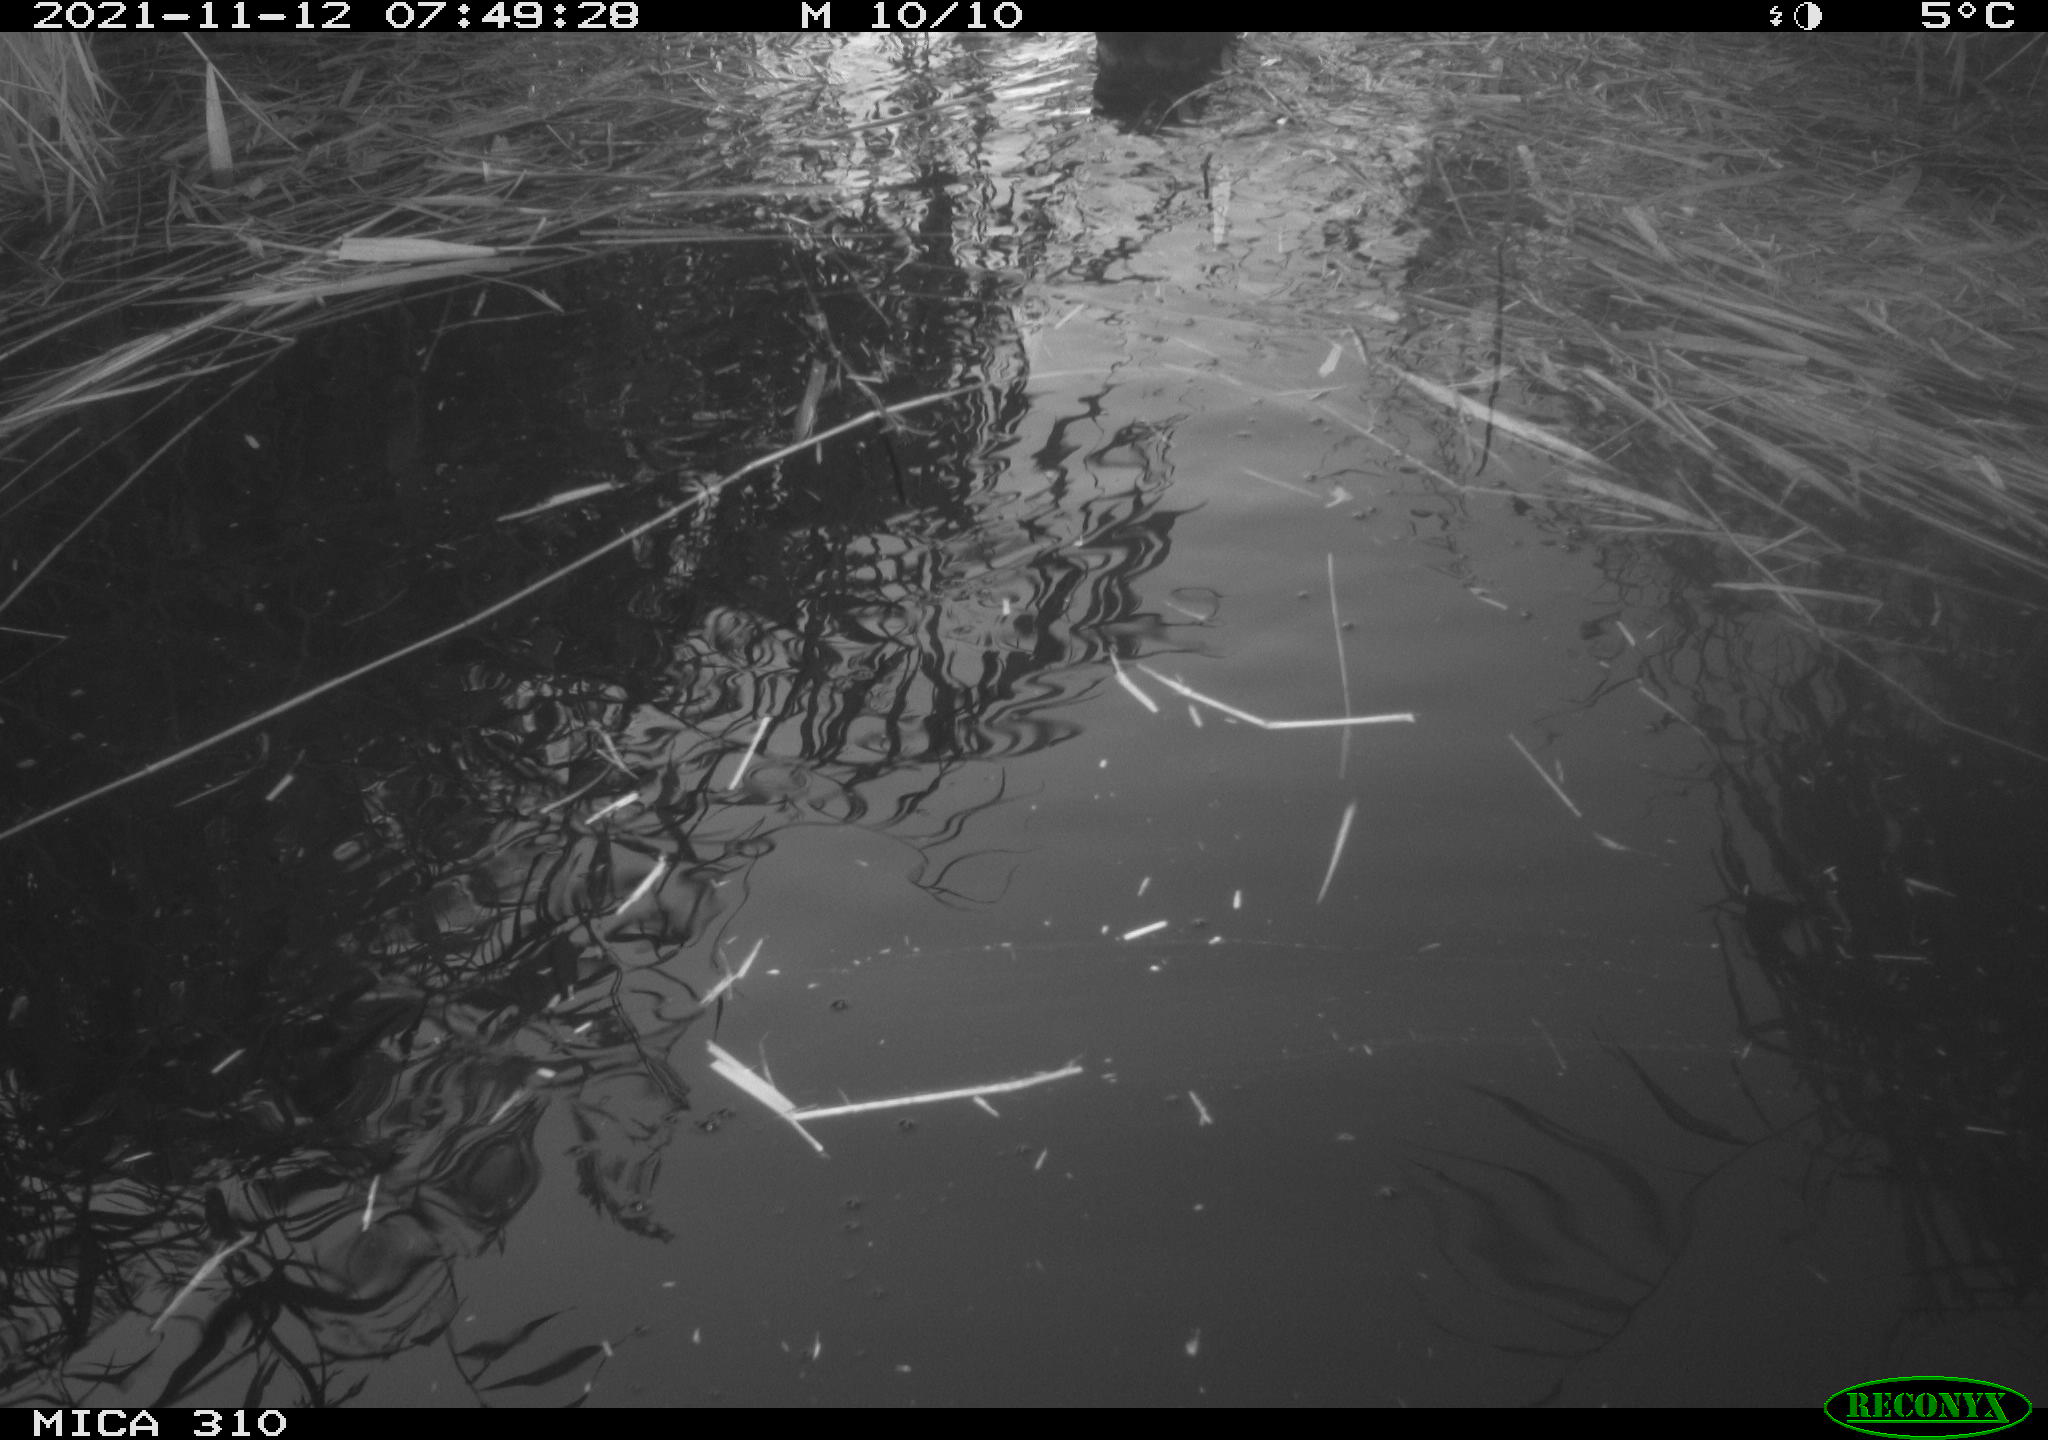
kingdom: Animalia
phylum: Chordata
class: Aves
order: Gruiformes
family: Rallidae
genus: Fulica
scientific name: Fulica atra
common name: Eurasian coot
